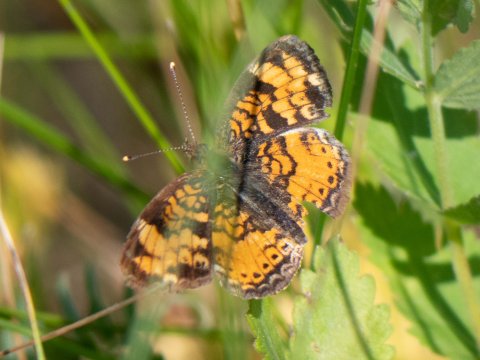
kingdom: Animalia
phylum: Arthropoda
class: Insecta
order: Lepidoptera
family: Nymphalidae
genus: Phyciodes
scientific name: Phyciodes
